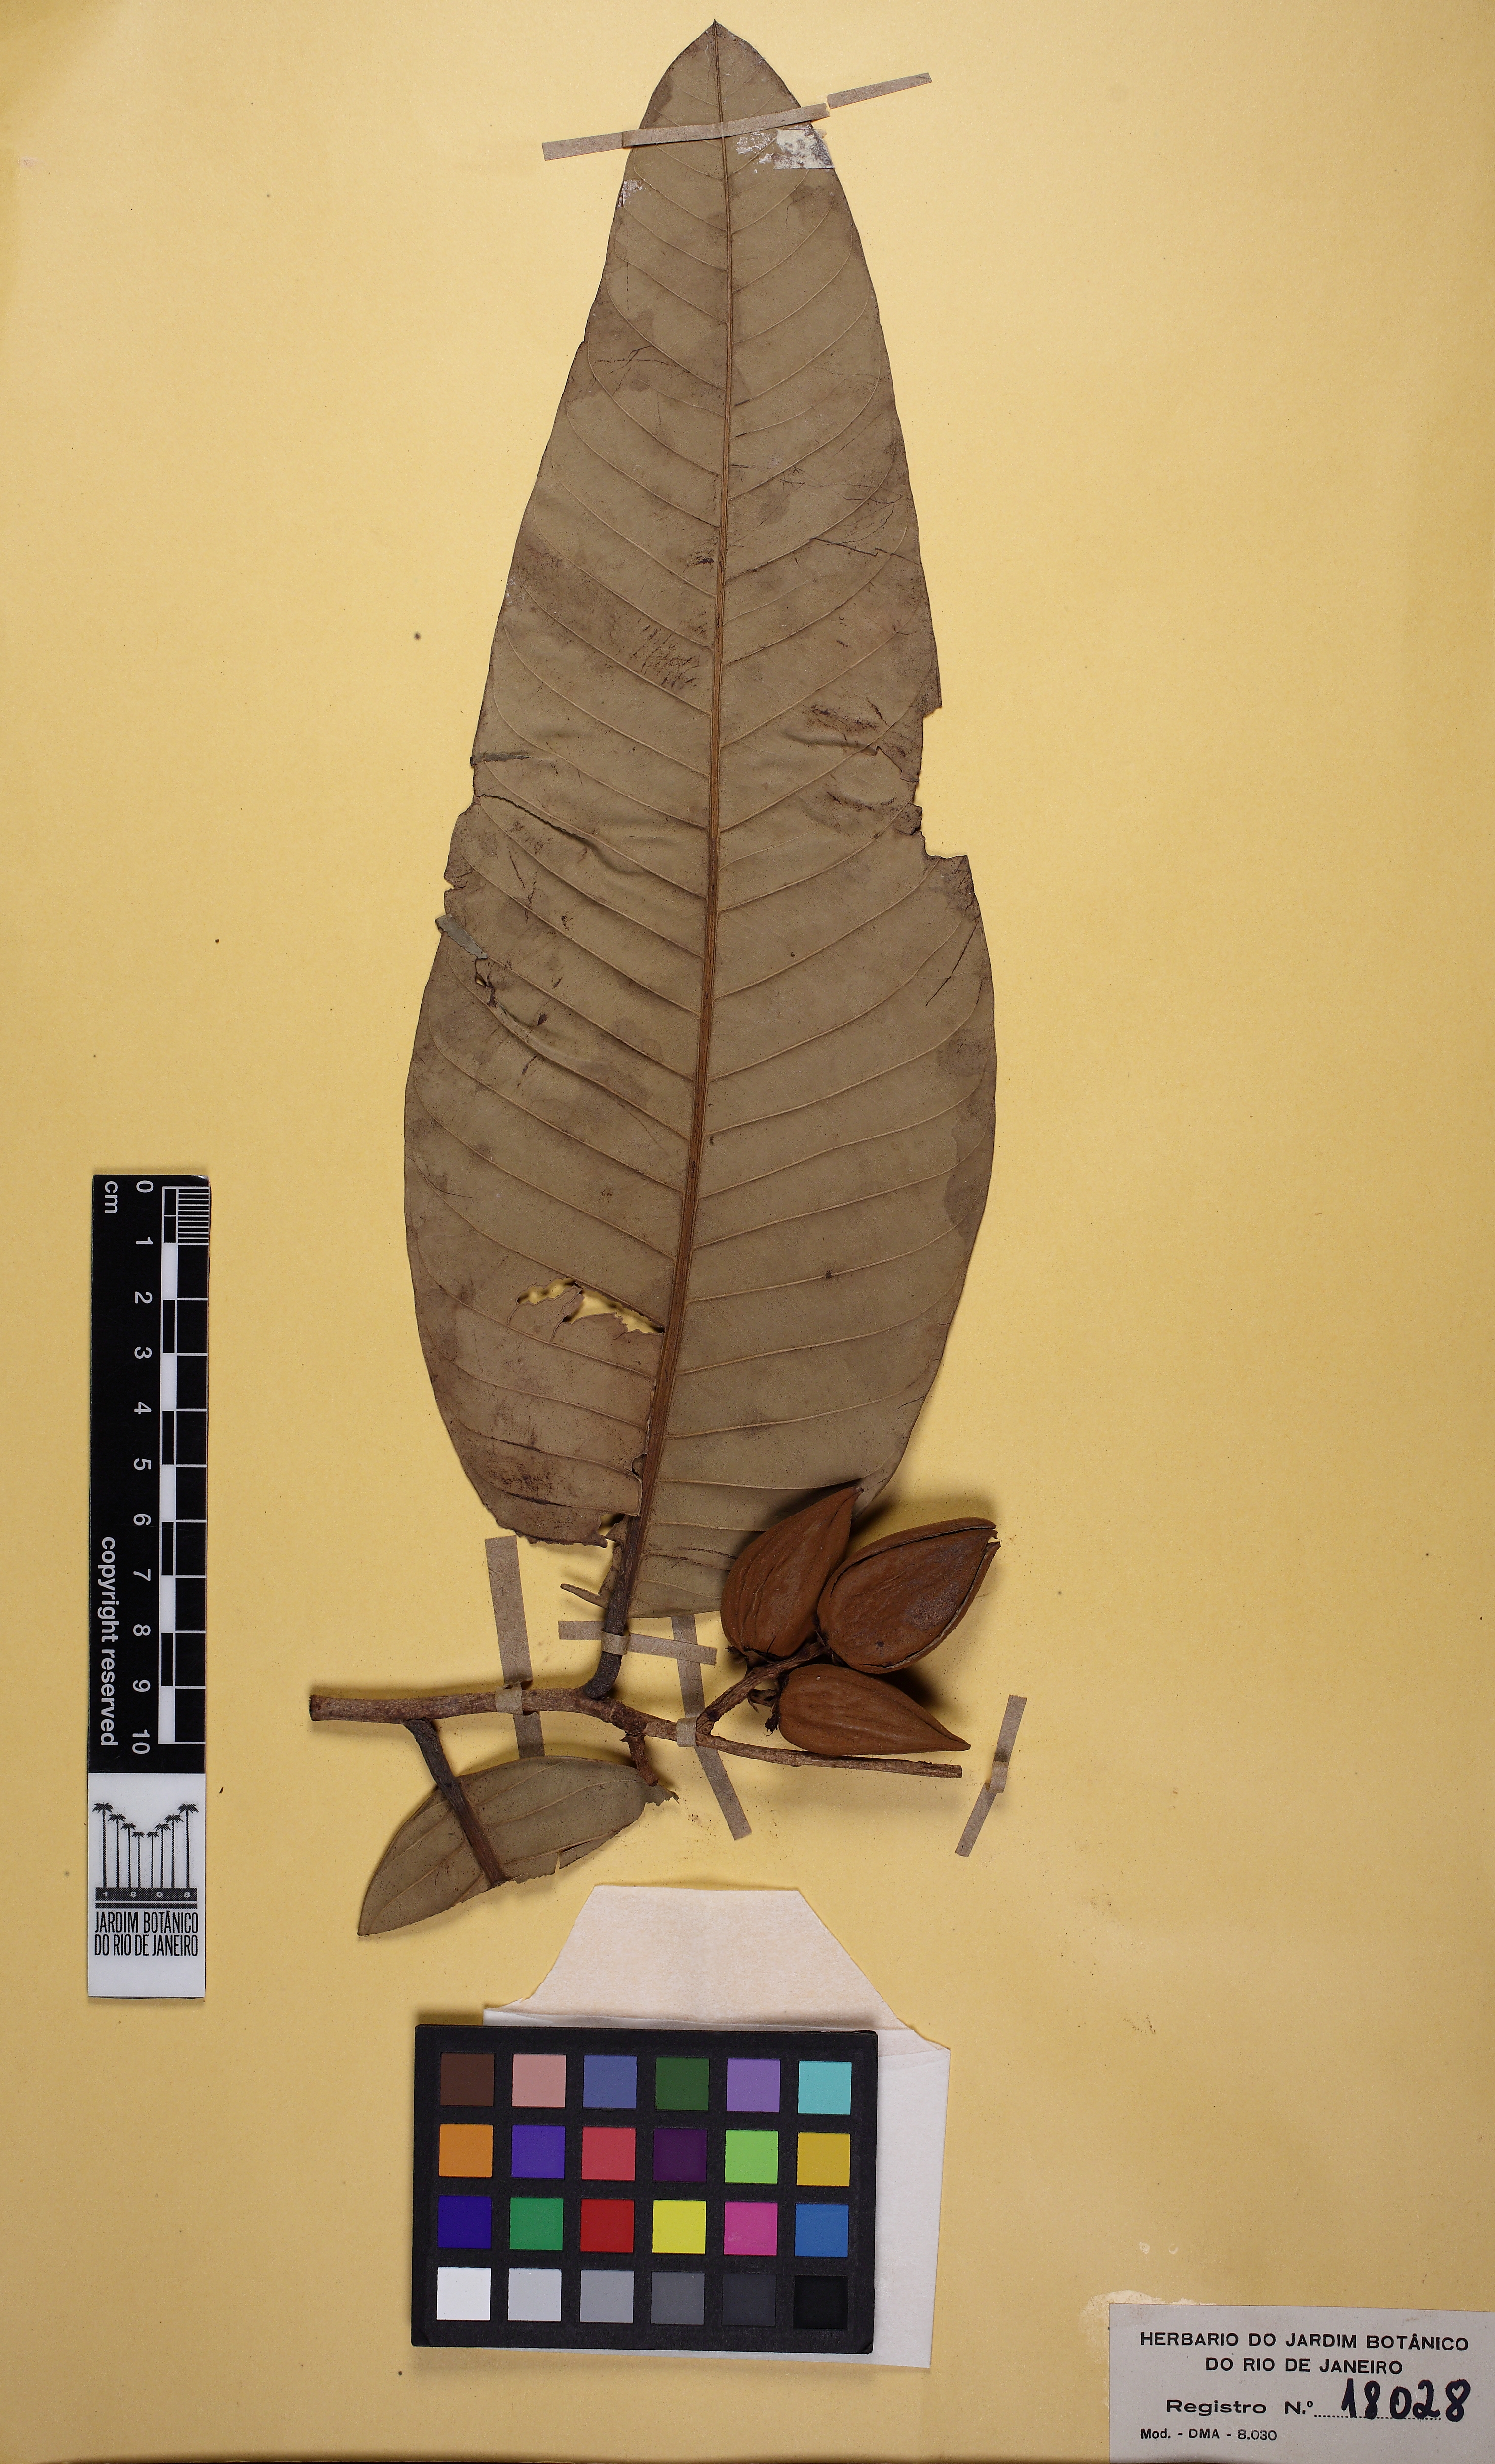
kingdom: Plantae
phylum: Tracheophyta
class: Magnoliopsida
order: Malpighiales
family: Calophyllaceae
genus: Caraipa
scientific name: Caraipa grandifolia
